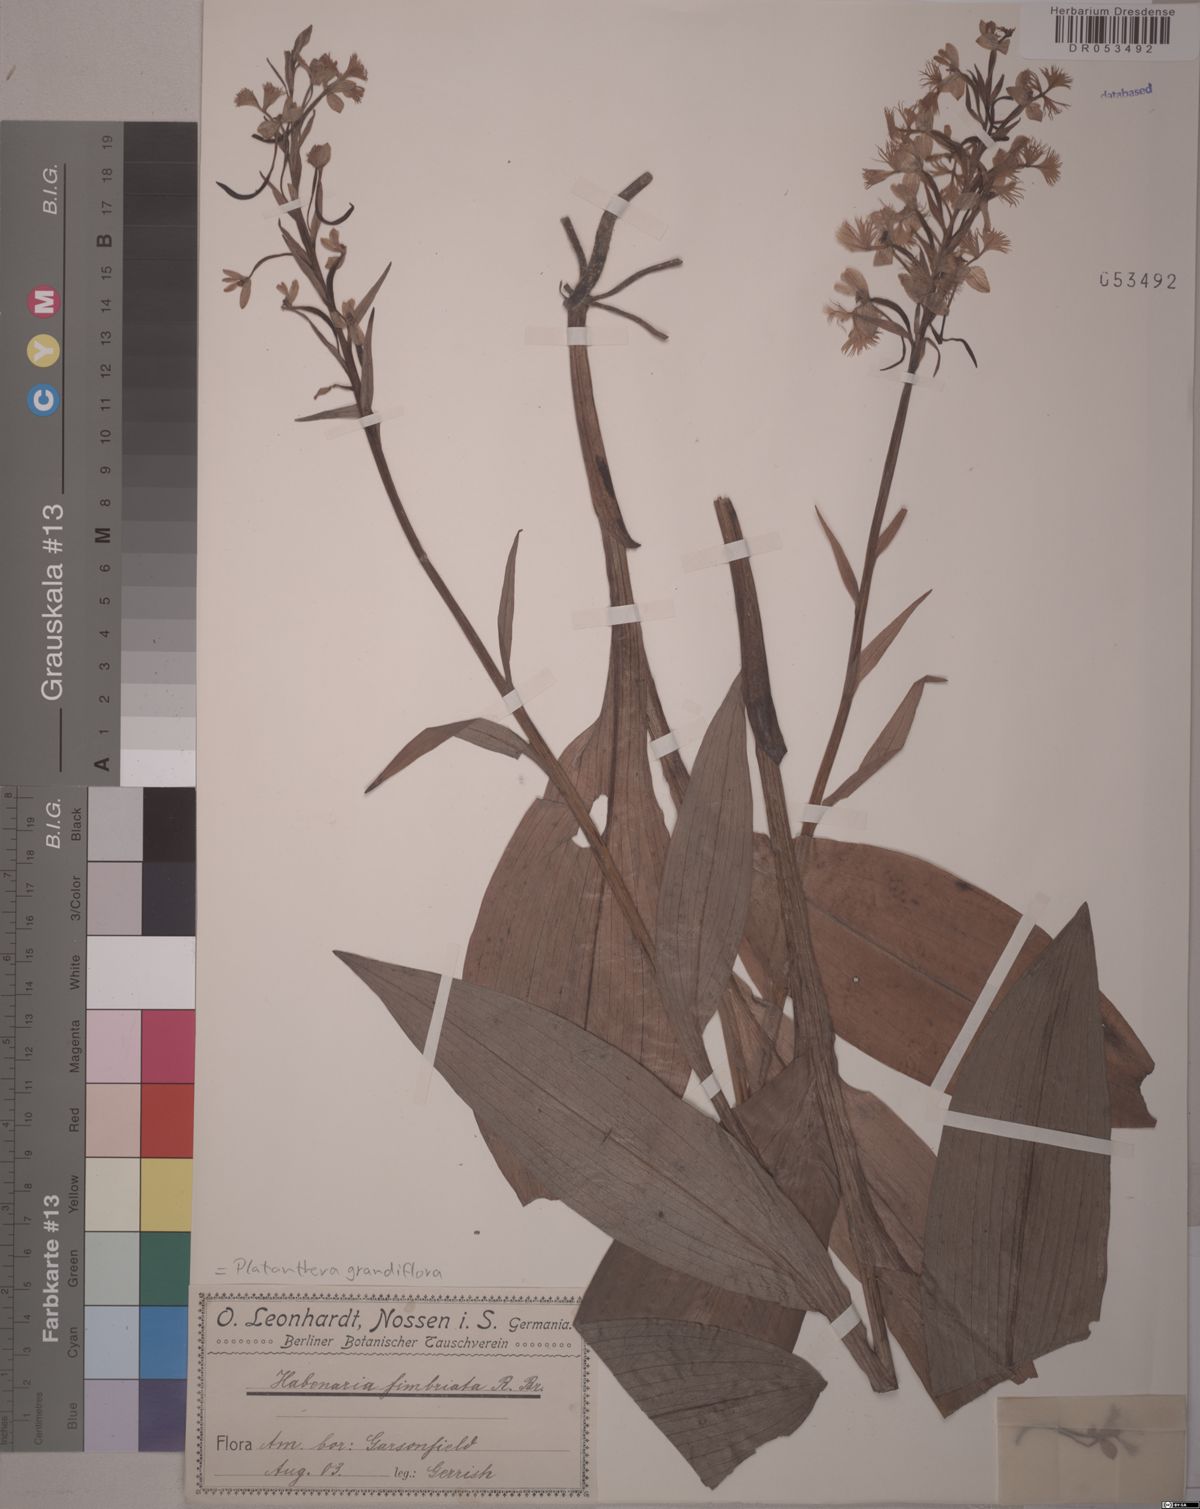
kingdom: Plantae
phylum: Tracheophyta
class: Liliopsida
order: Asparagales
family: Orchidaceae
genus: Platanthera
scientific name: Platanthera grandiflora
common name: Greater purple fringed orchid
